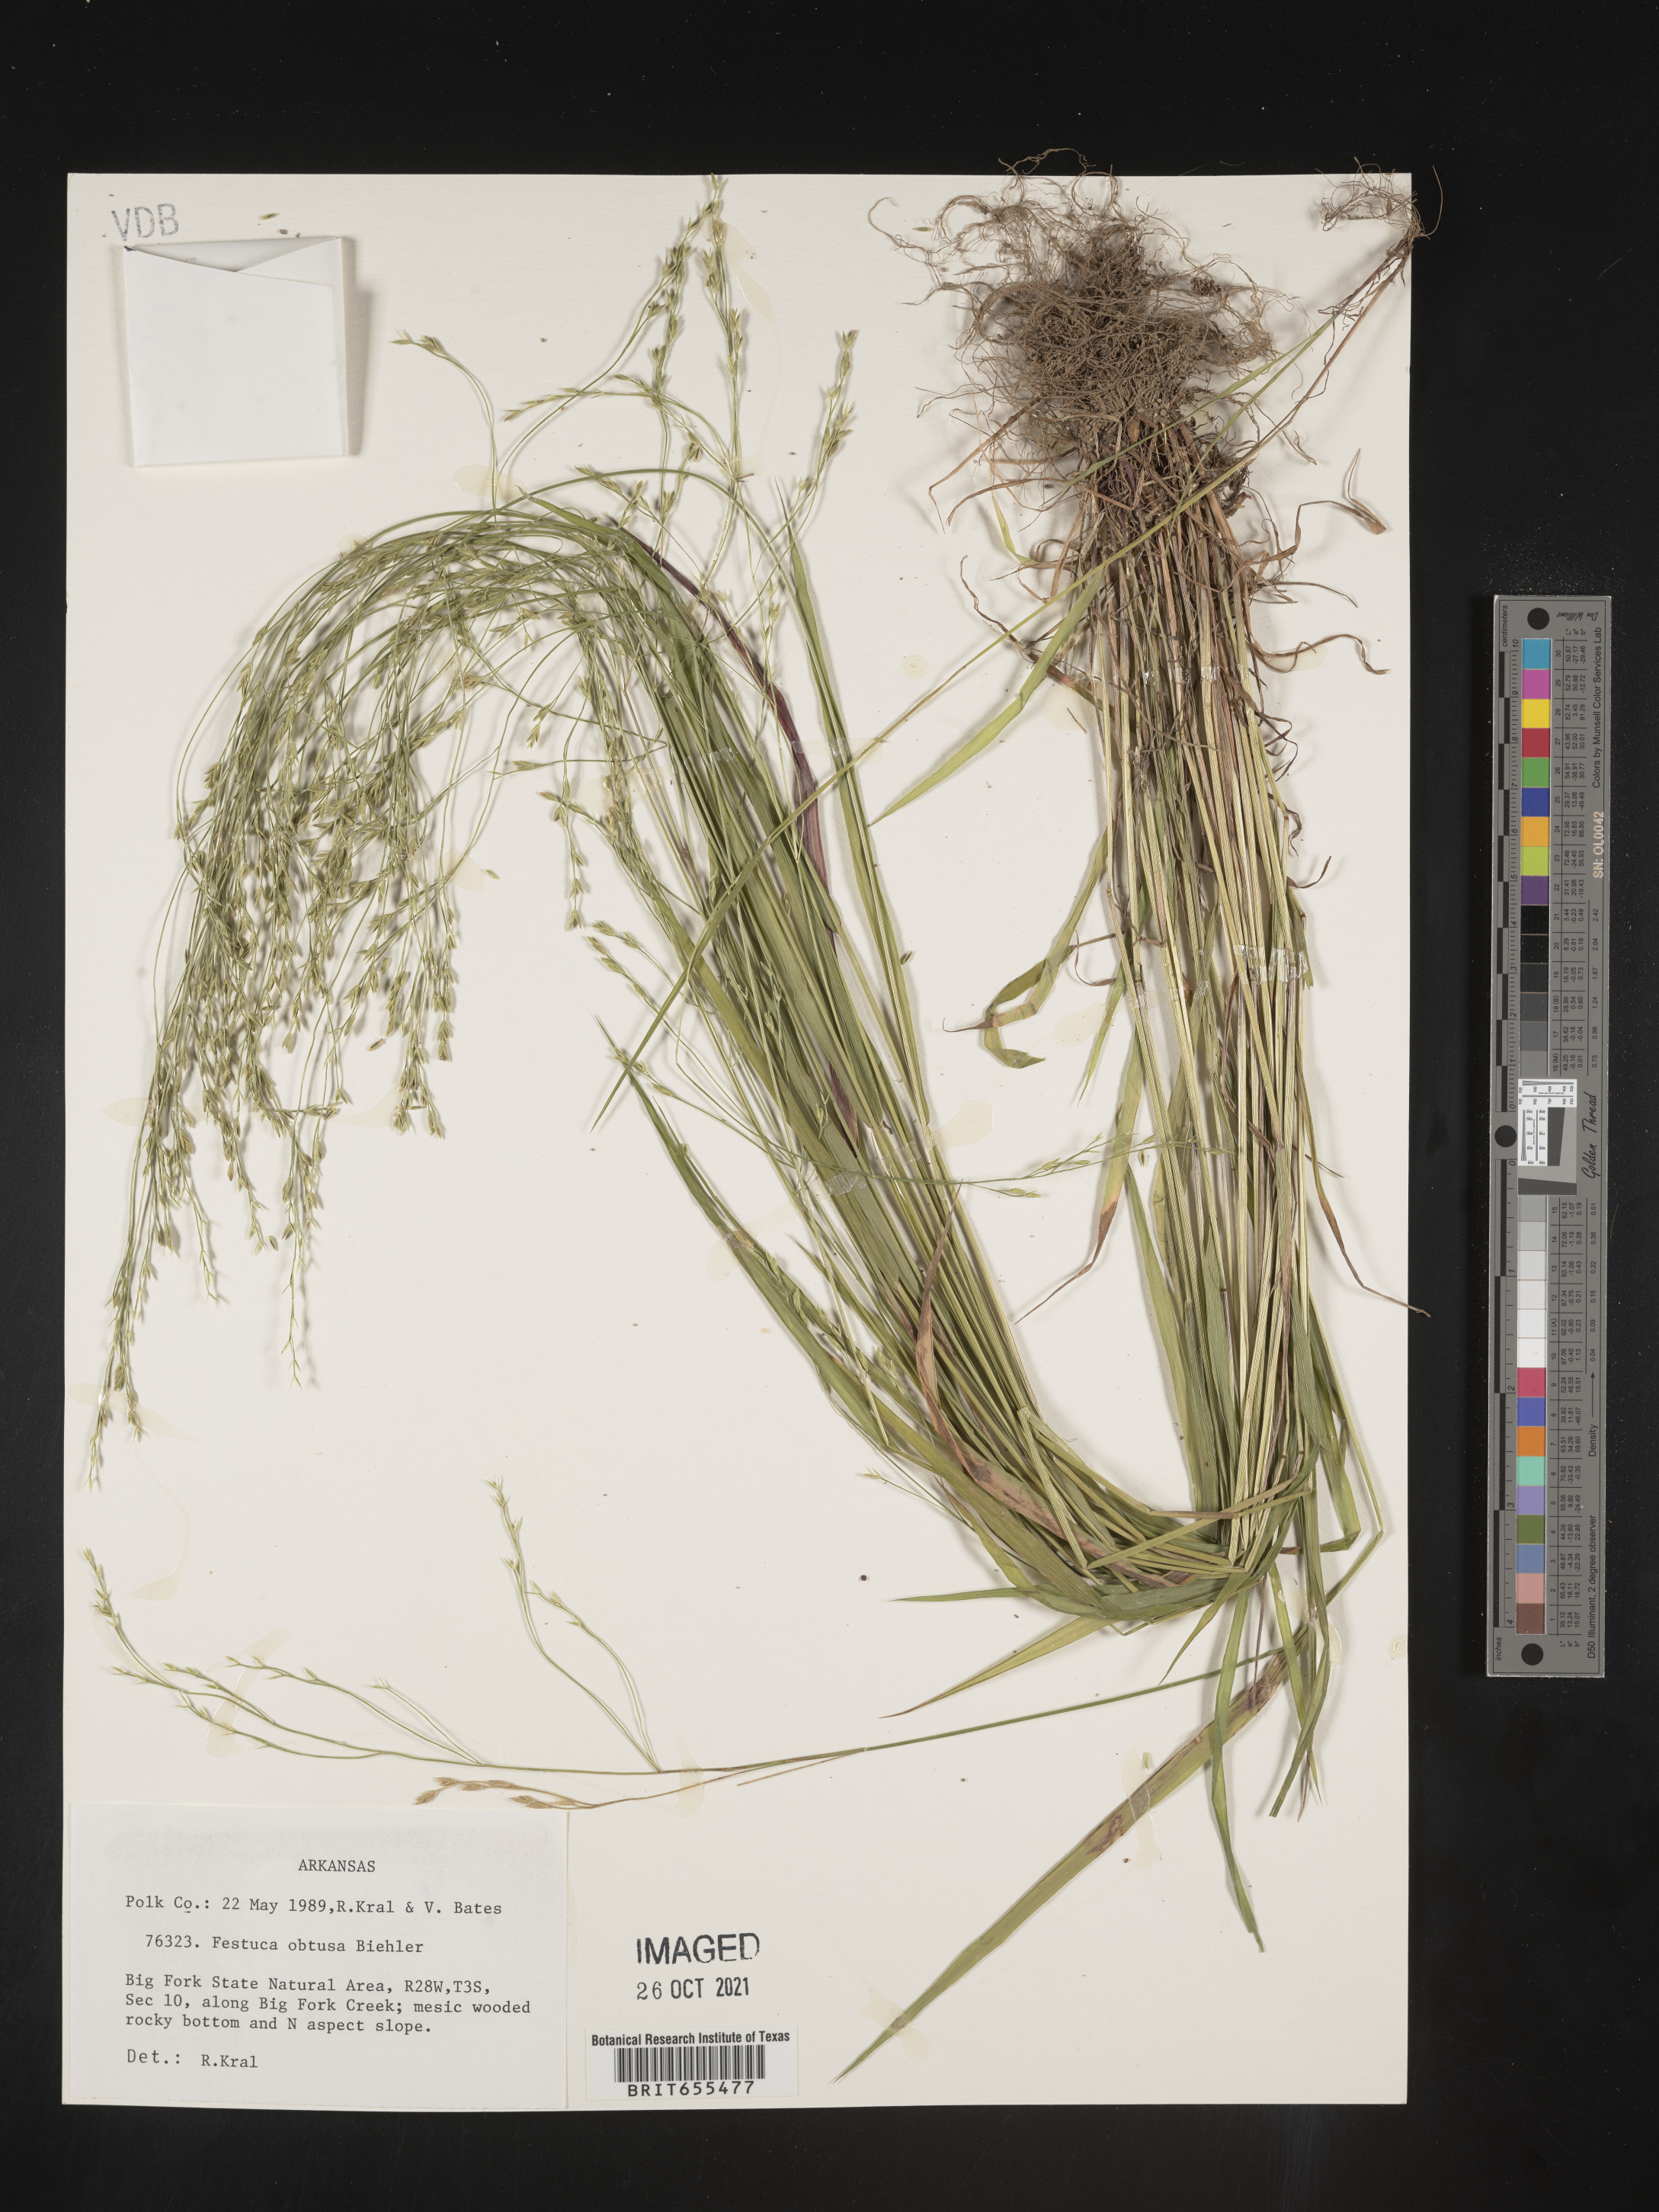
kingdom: Plantae
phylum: Tracheophyta
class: Liliopsida
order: Poales
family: Poaceae
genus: Festuca
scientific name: Festuca
